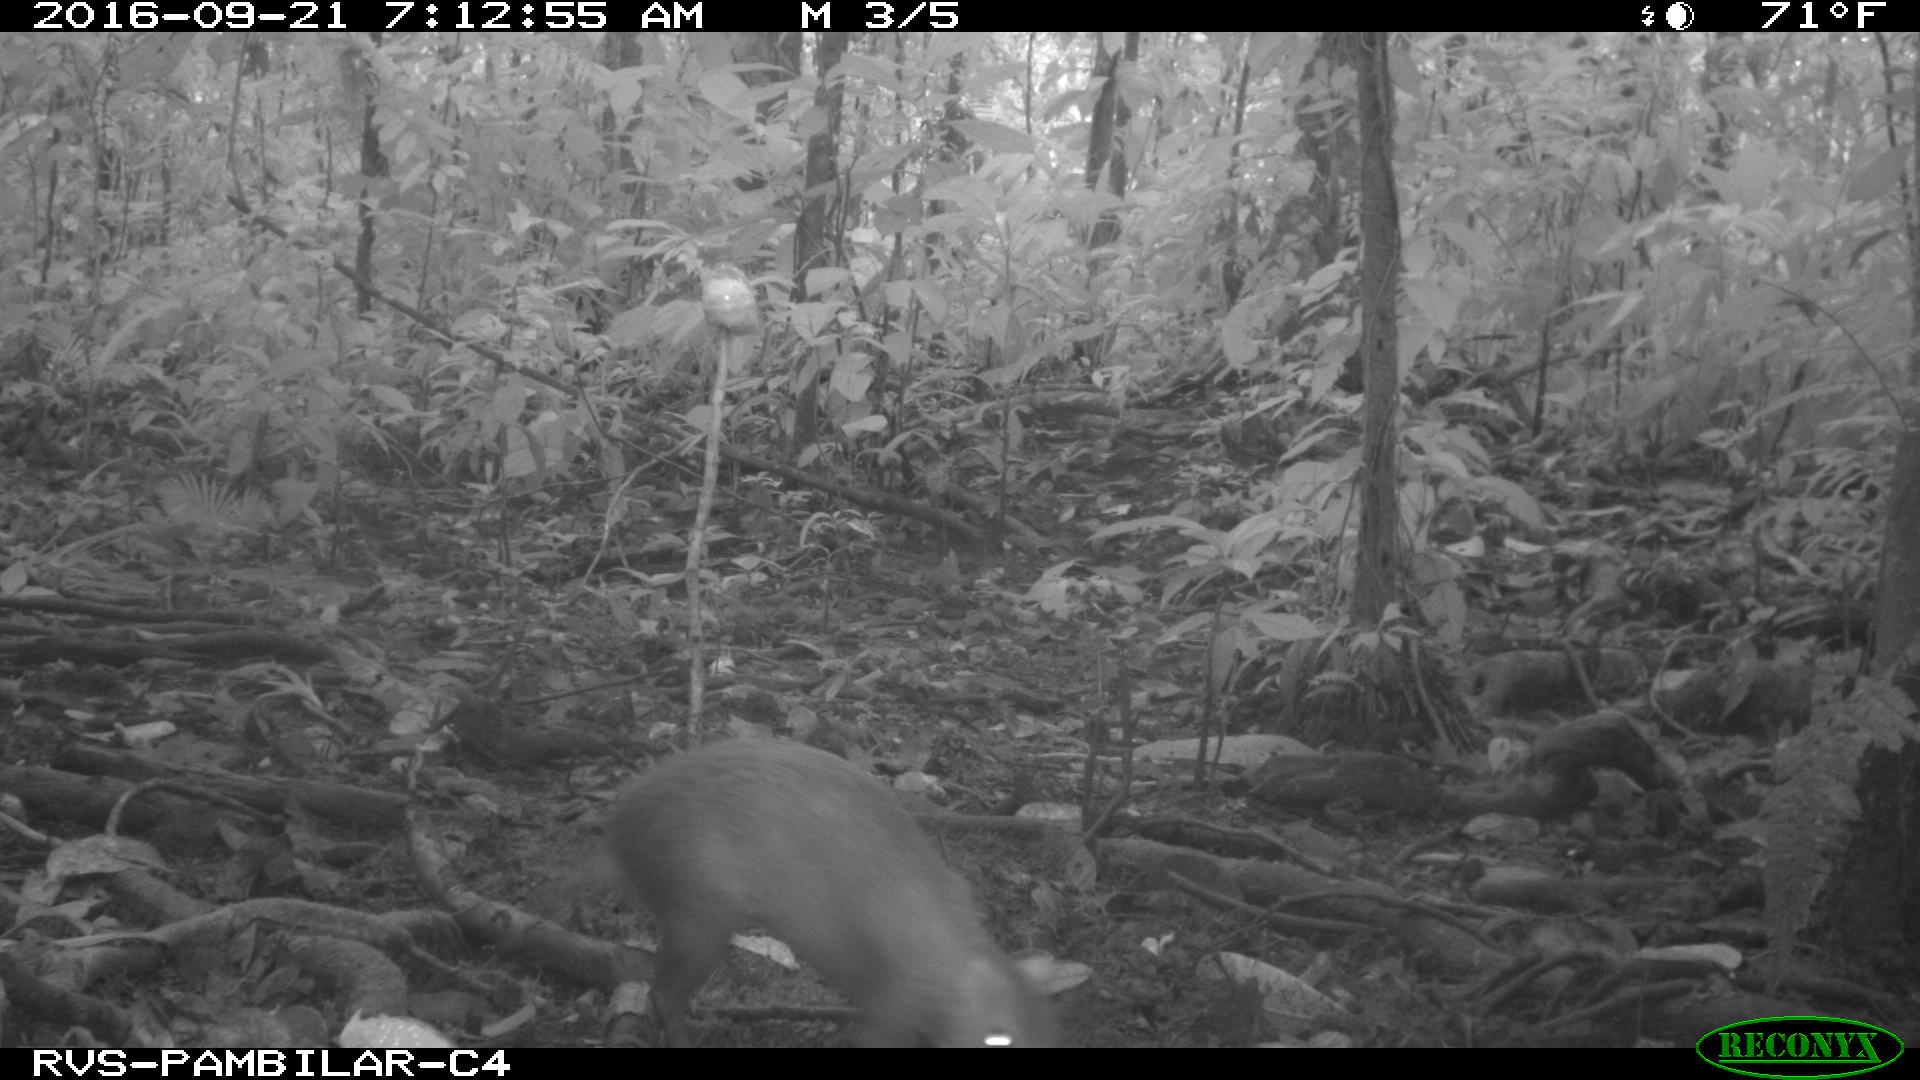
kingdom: Animalia
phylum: Chordata
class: Mammalia
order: Rodentia
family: Dasyproctidae
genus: Dasyprocta
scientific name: Dasyprocta punctata
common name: Central american agouti
